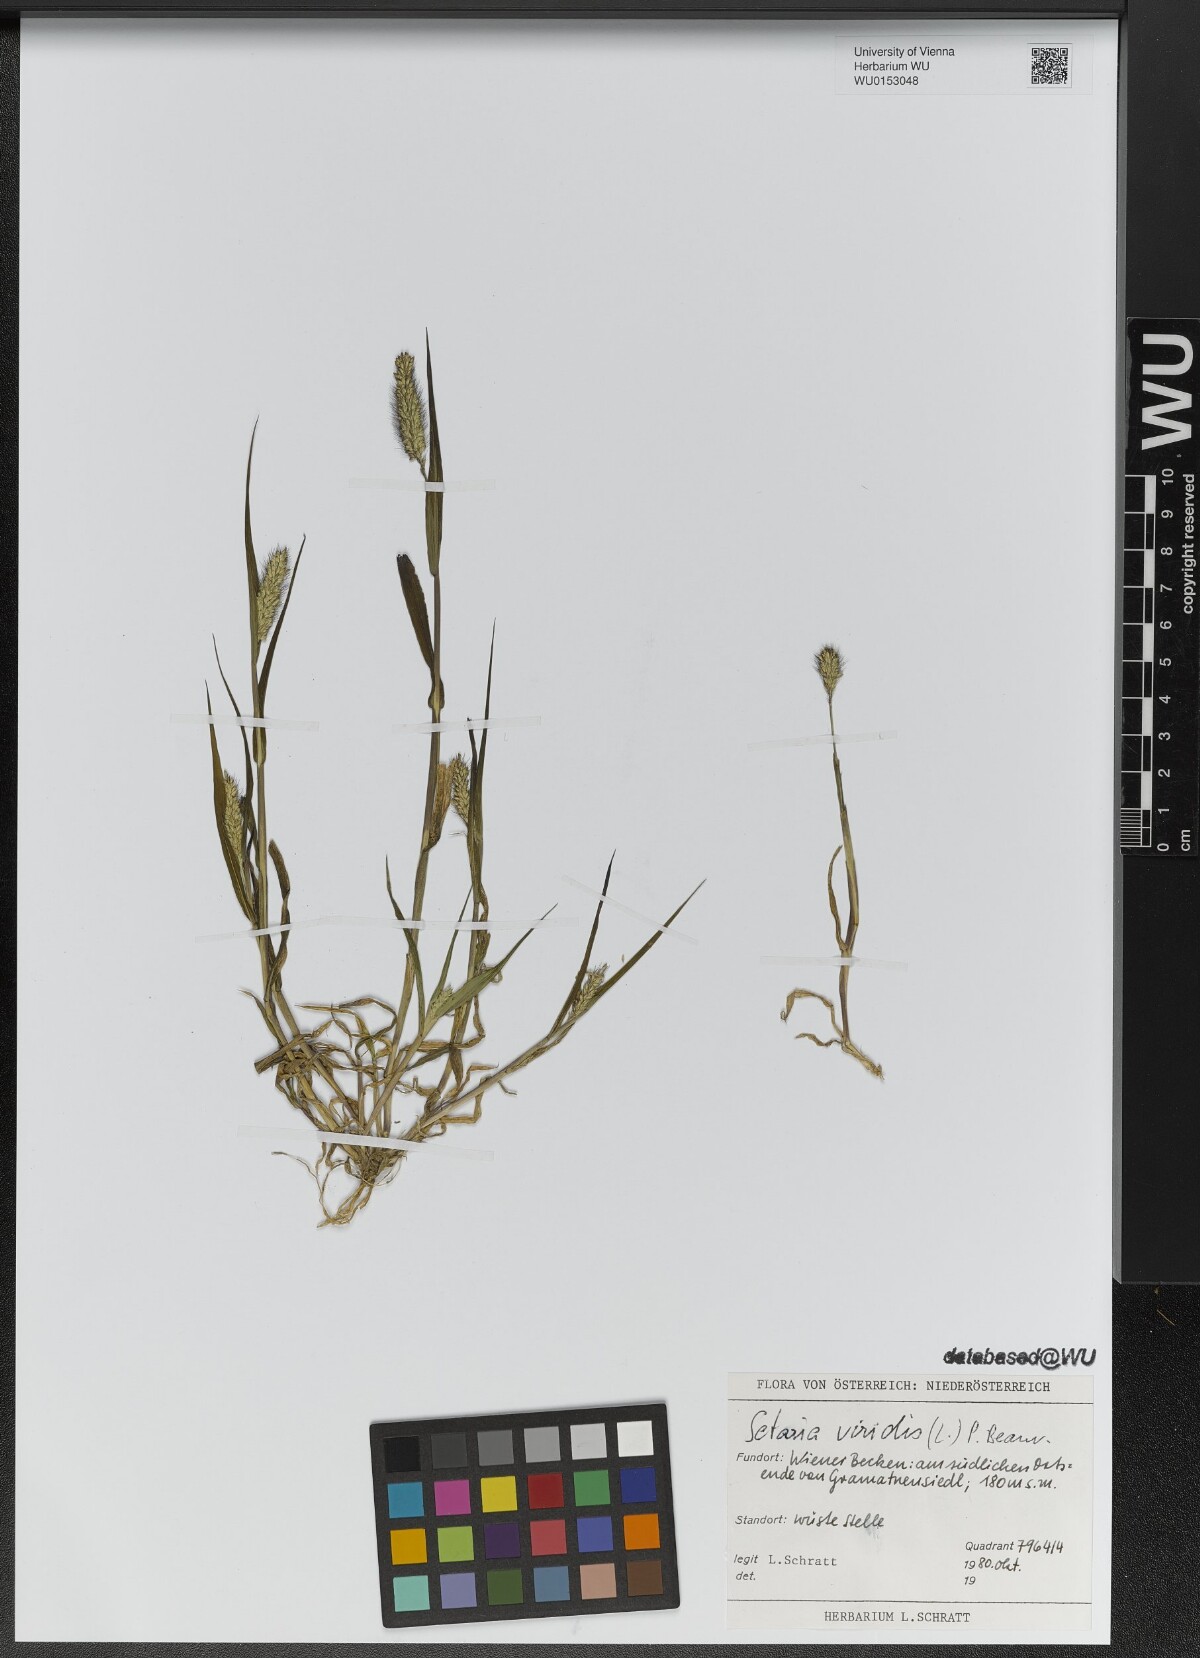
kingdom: Plantae
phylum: Tracheophyta
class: Liliopsida
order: Poales
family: Poaceae
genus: Setaria
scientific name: Setaria viridis
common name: Green bristlegrass
